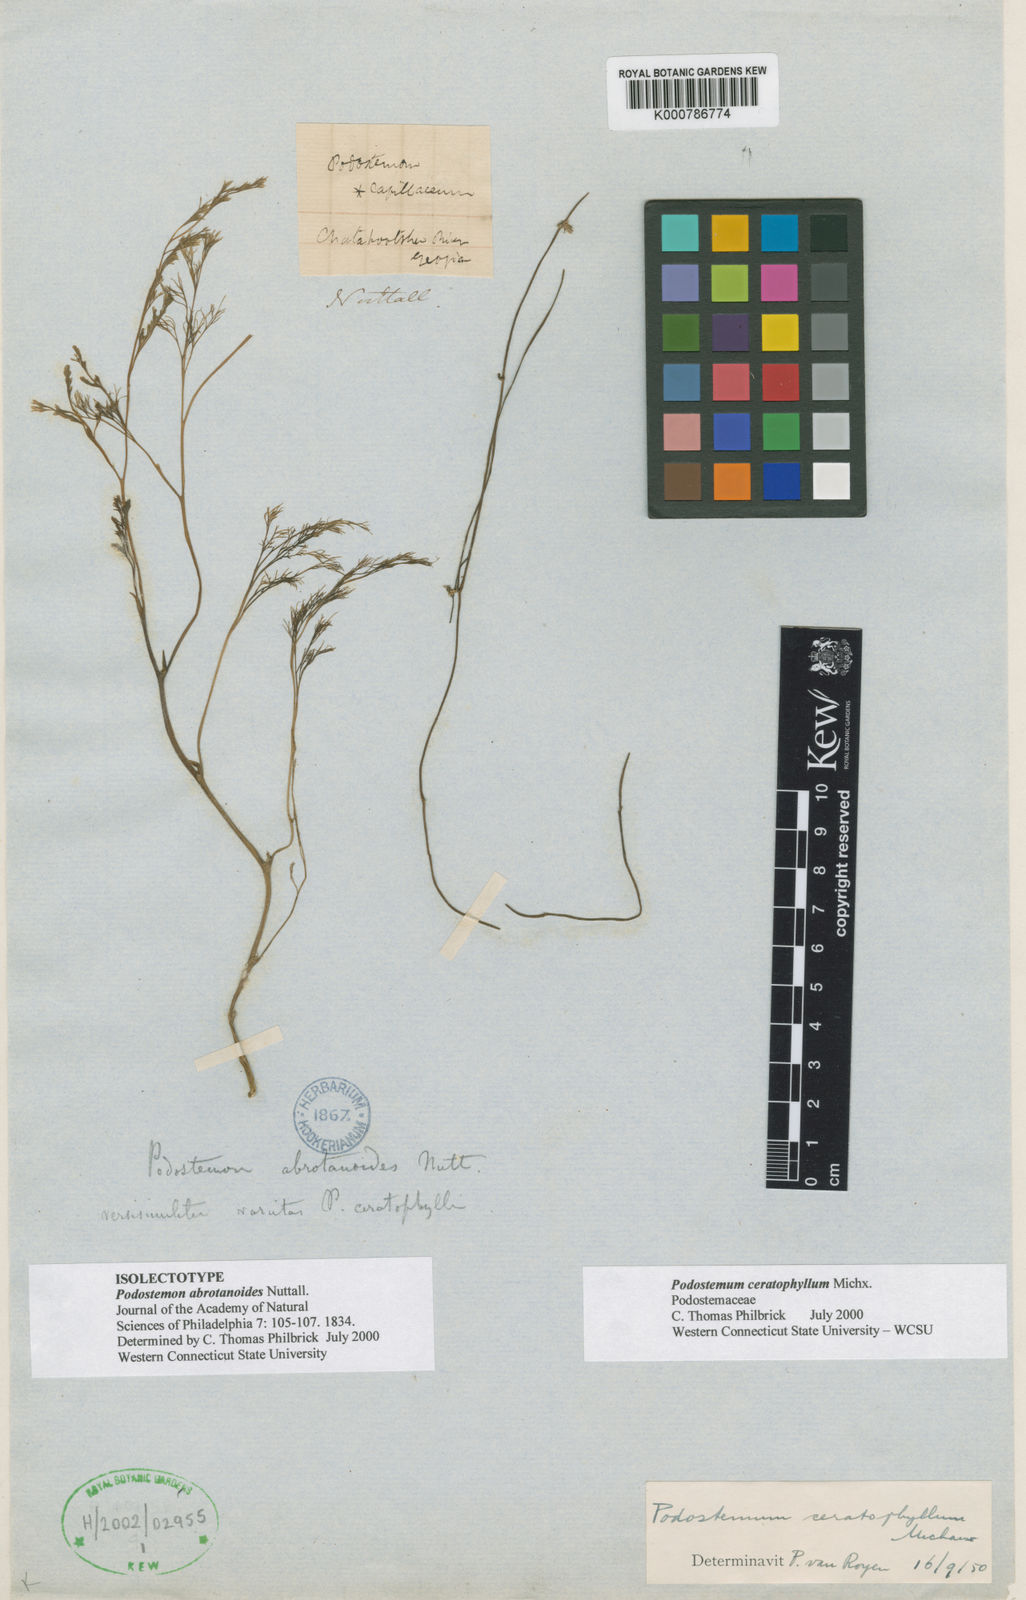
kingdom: Plantae
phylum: Tracheophyta
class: Magnoliopsida
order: Malpighiales
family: Podostemaceae
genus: Podostemum
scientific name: Podostemum ceratophyllum
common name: Horn-leaved riverweed
